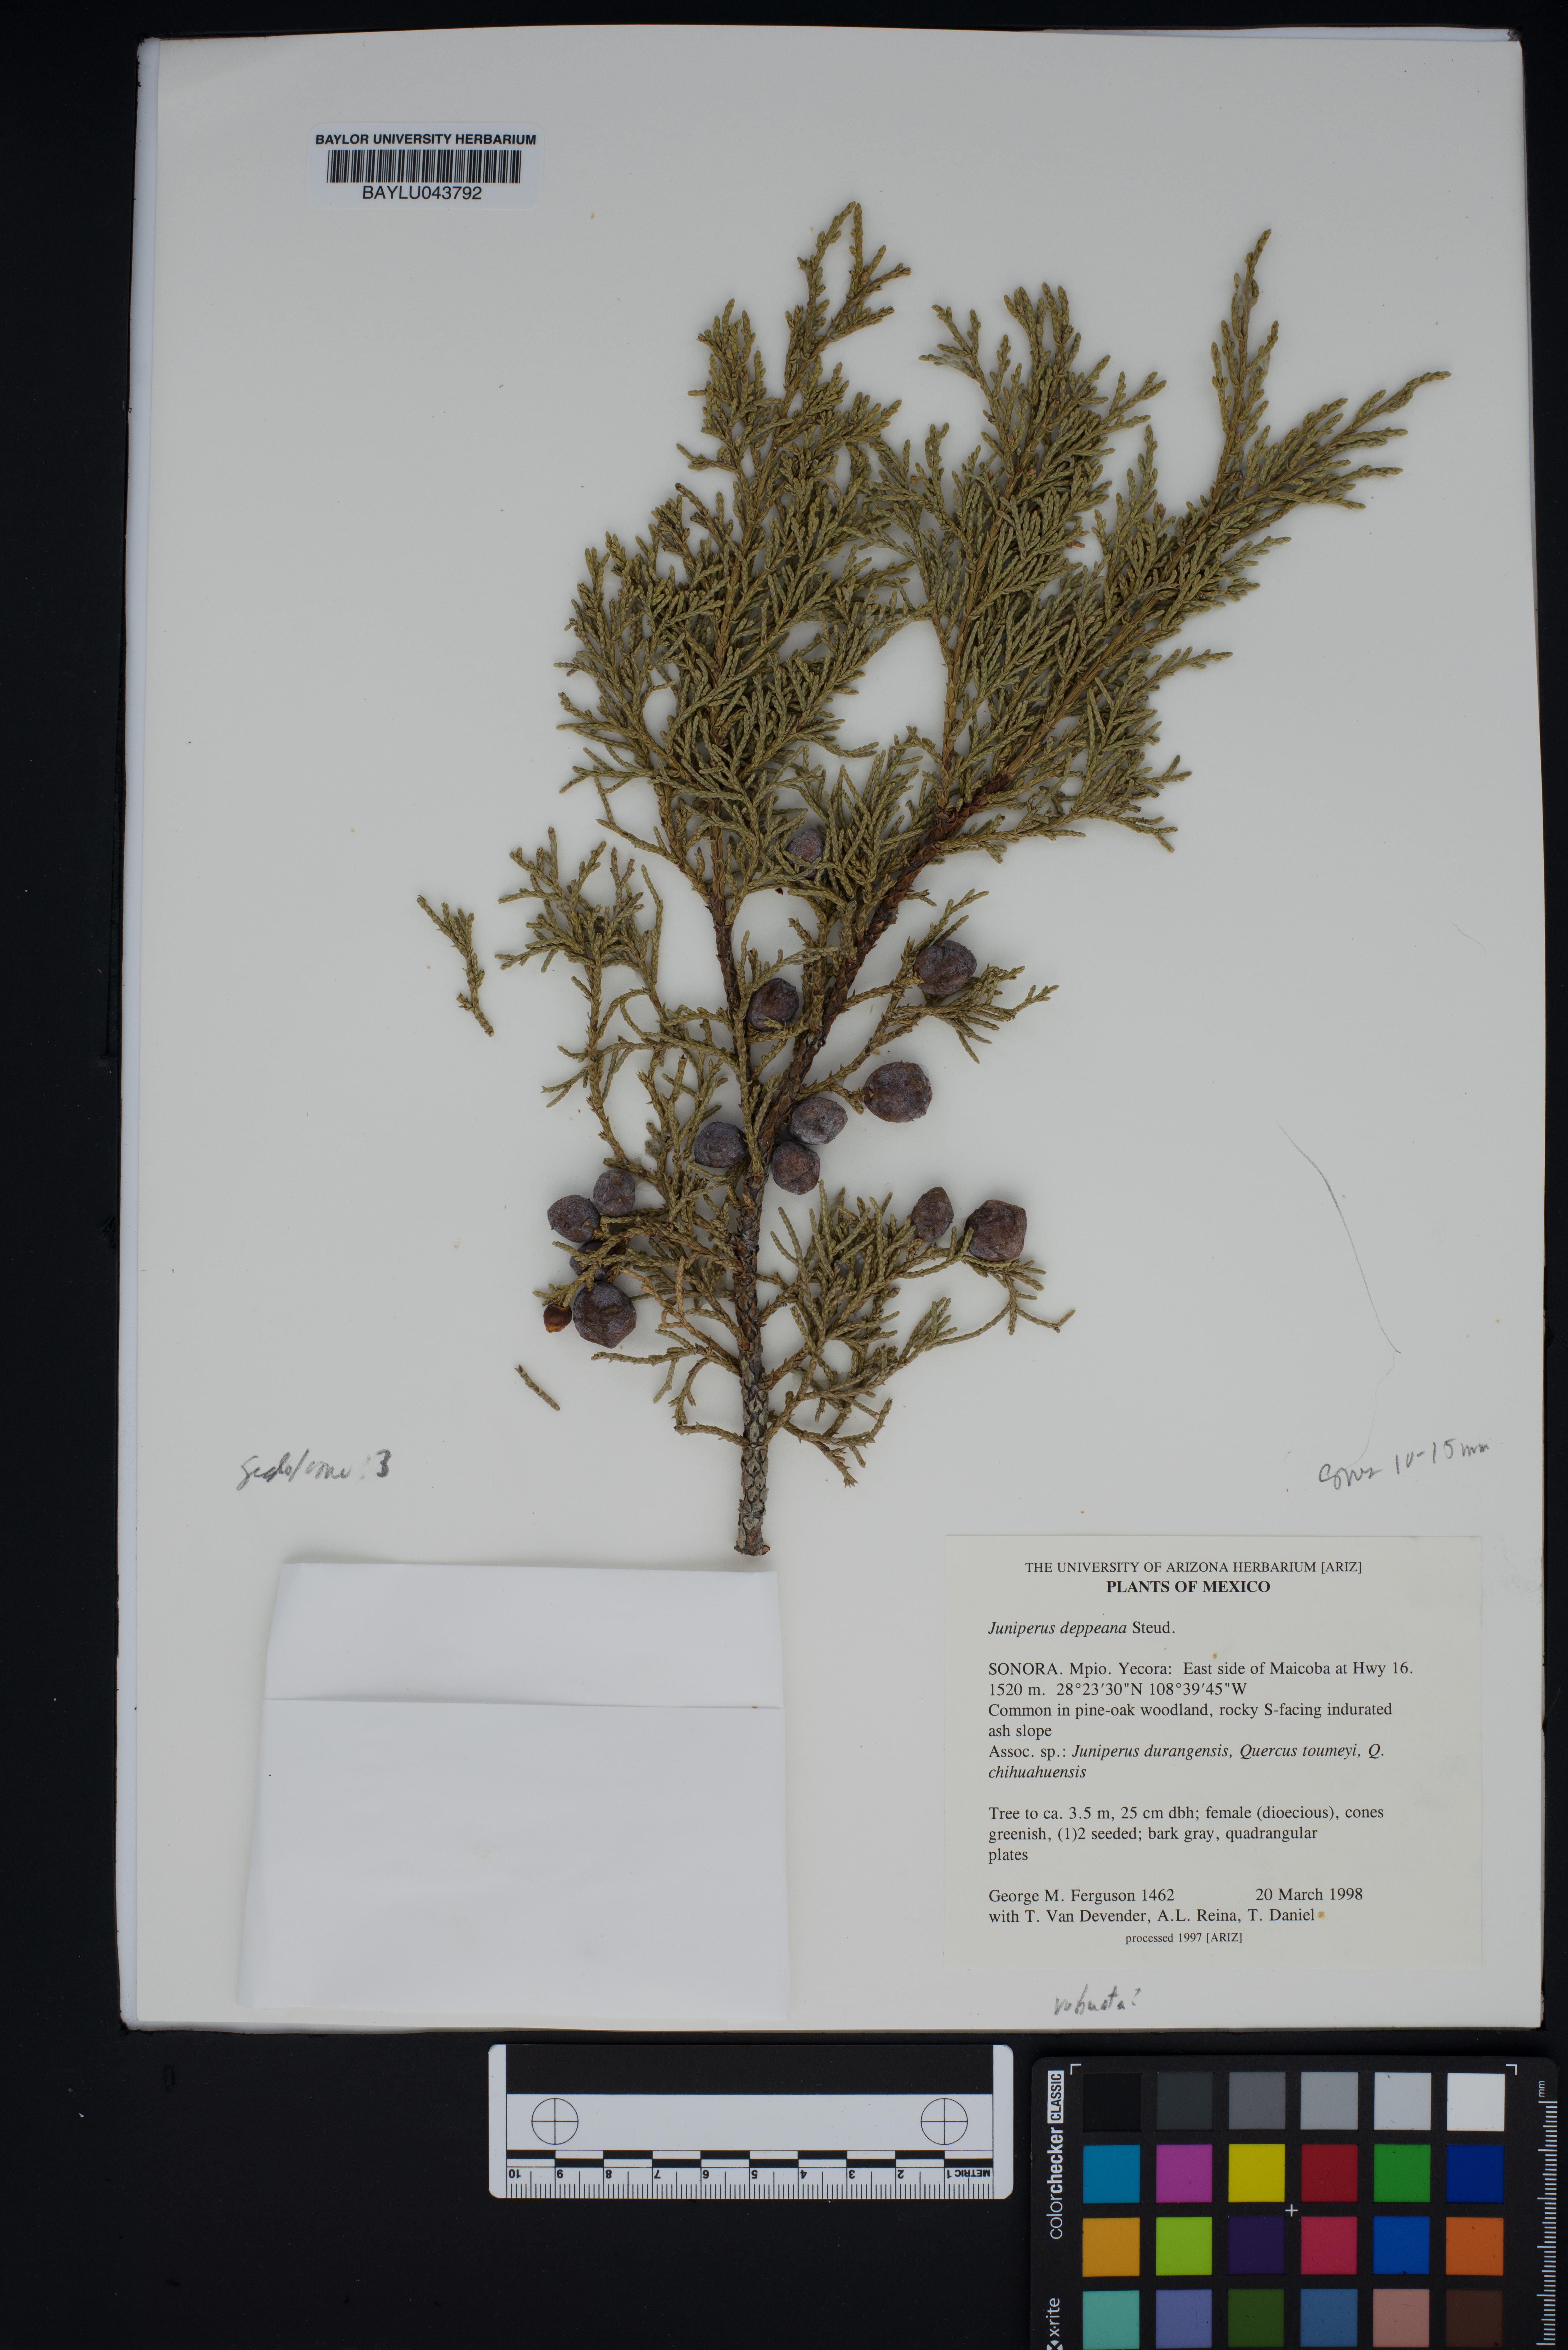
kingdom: Plantae
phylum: Tracheophyta
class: Pinopsida
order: Pinales
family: Cupressaceae
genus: Juniperus
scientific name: Juniperus deppeana
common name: Alligator juniper
